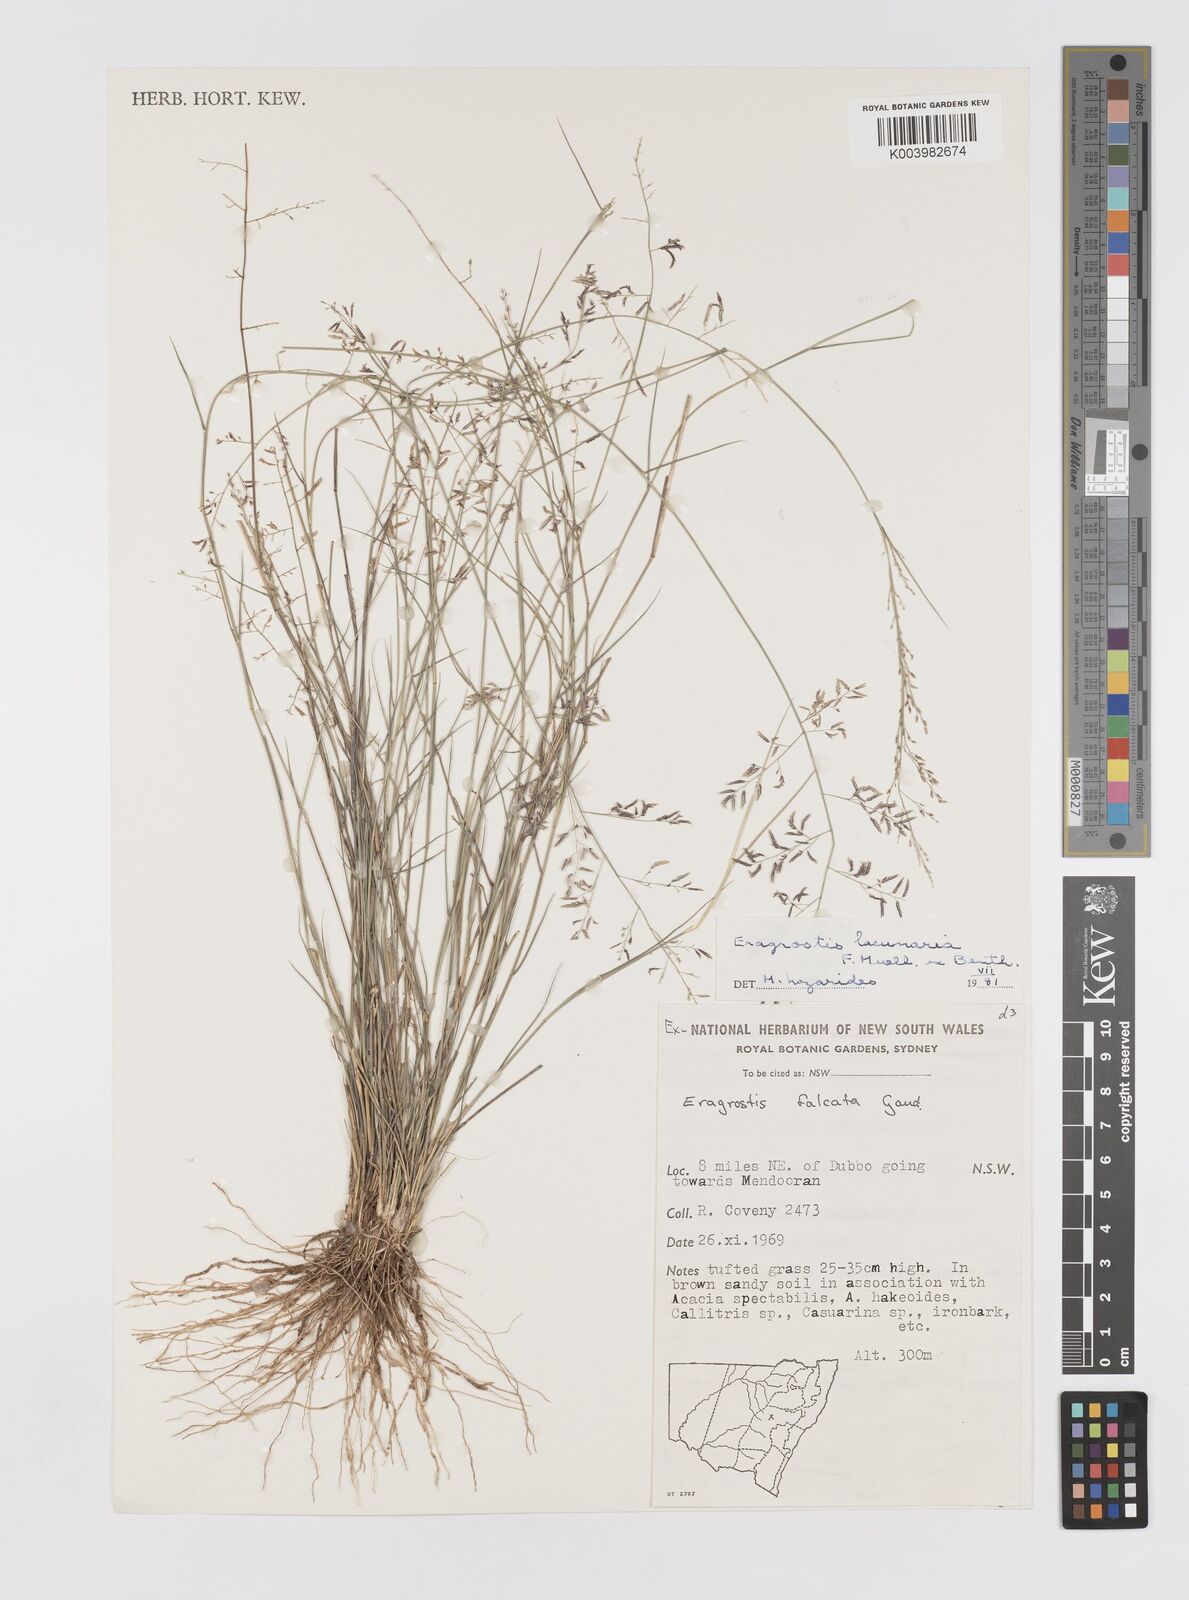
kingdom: Plantae
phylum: Tracheophyta
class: Liliopsida
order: Poales
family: Poaceae
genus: Eragrostis
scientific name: Eragrostis lacunaria
